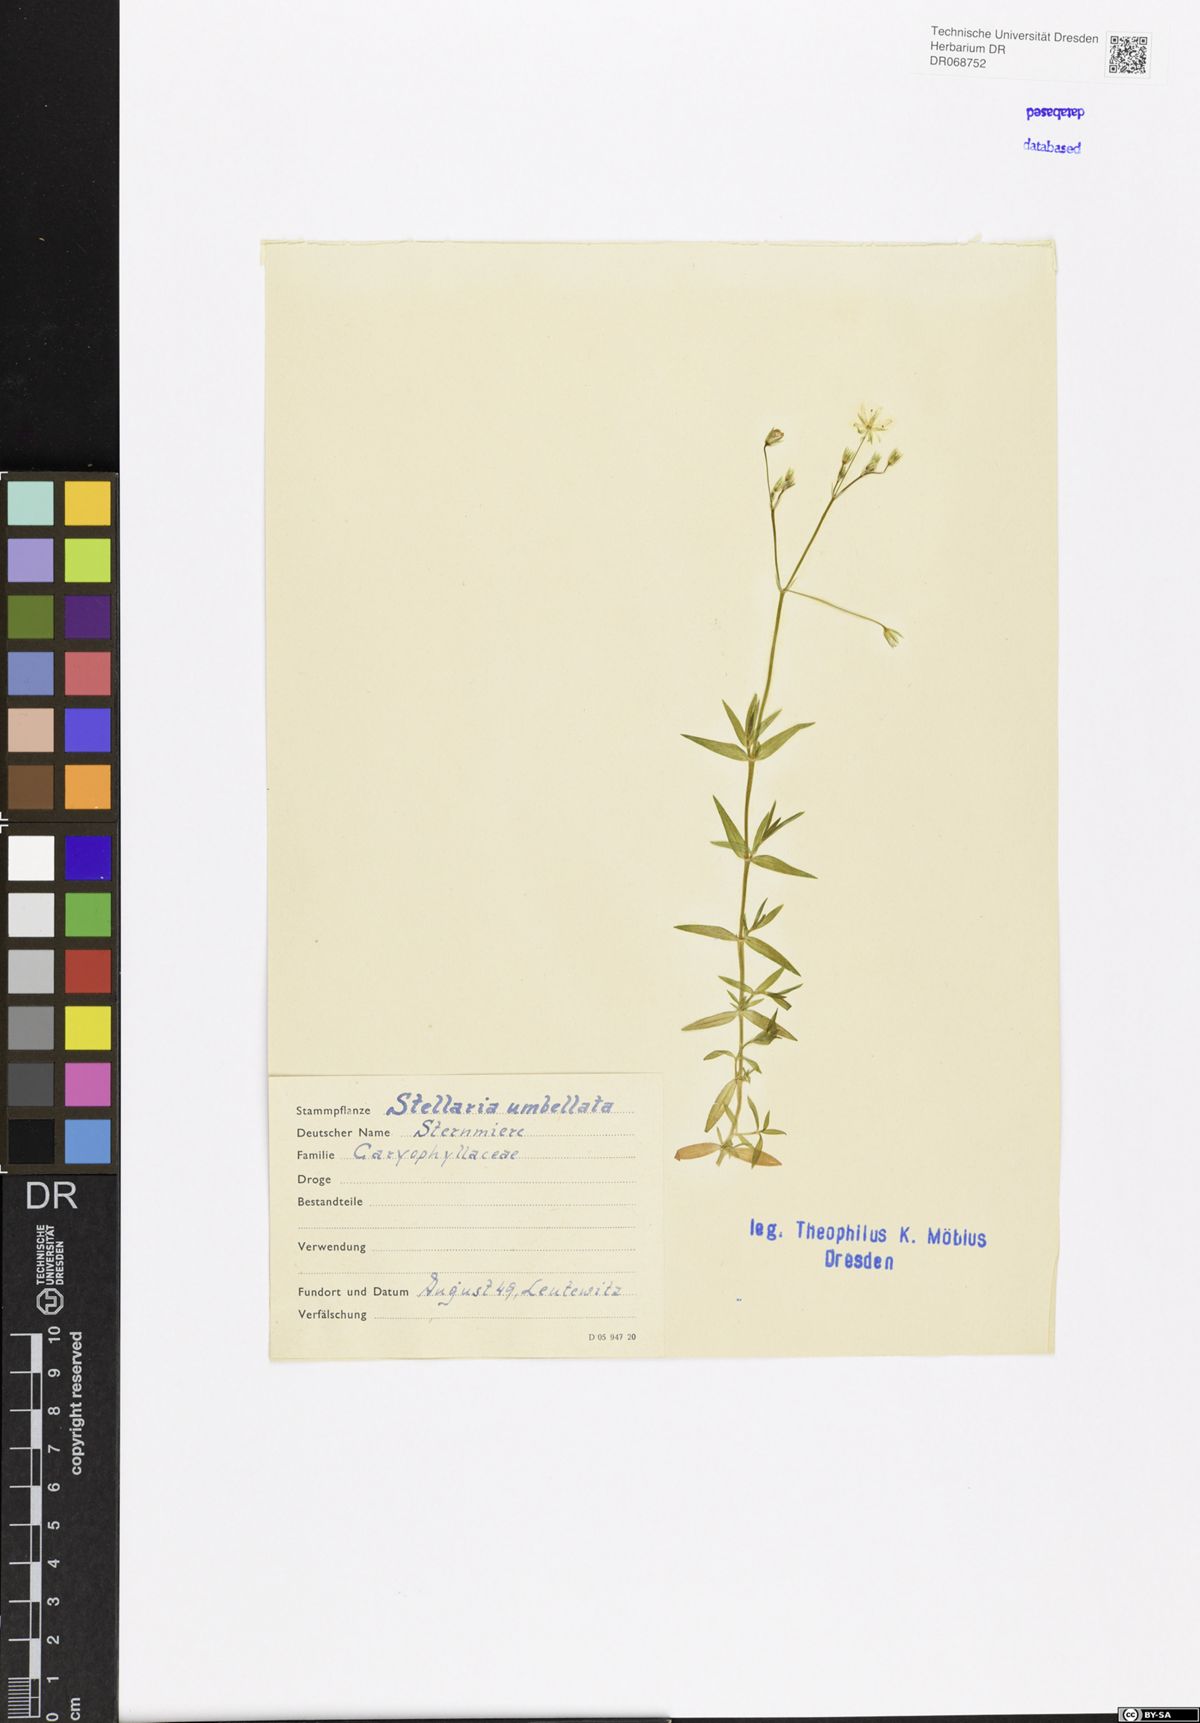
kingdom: Plantae
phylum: Tracheophyta
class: Magnoliopsida
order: Caryophyllales
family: Caryophyllaceae
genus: Stellaria
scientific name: Stellaria irrigua
